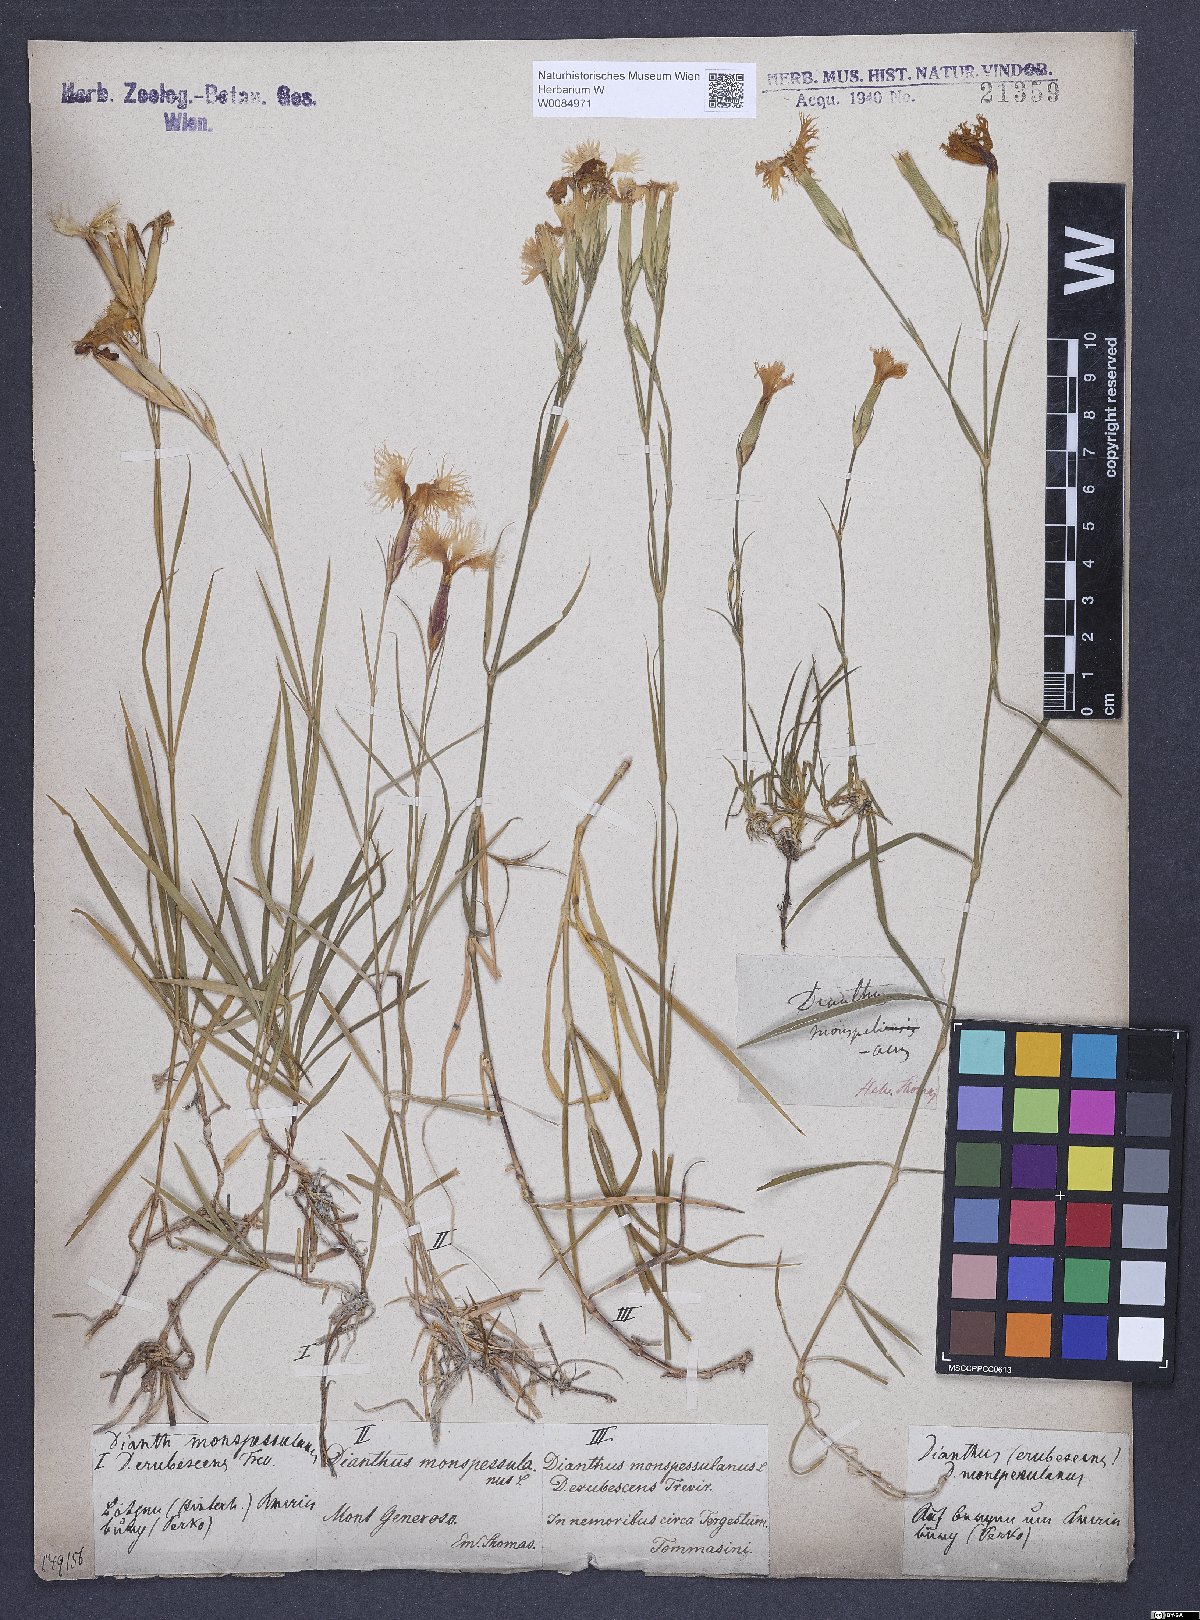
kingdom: Plantae
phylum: Tracheophyta
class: Magnoliopsida
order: Caryophyllales
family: Caryophyllaceae
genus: Dianthus
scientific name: Dianthus hyssopifolius
